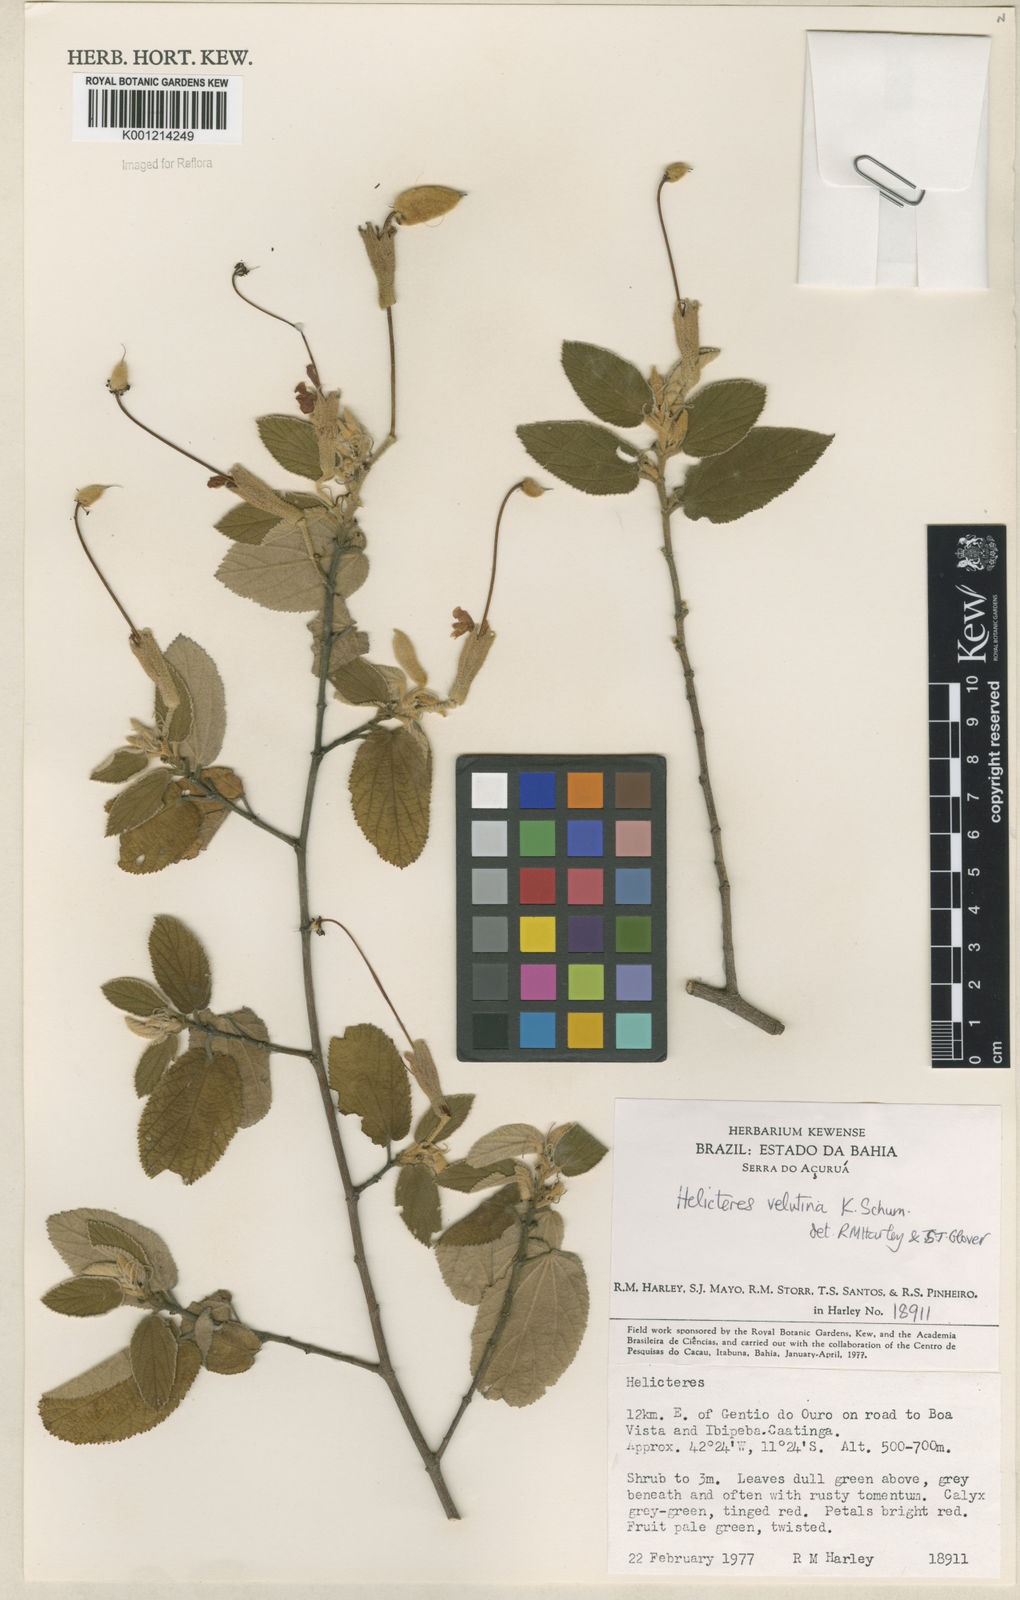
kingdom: Plantae
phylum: Tracheophyta
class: Magnoliopsida
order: Malvales
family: Malvaceae
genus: Helicteres
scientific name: Helicteres velutina
